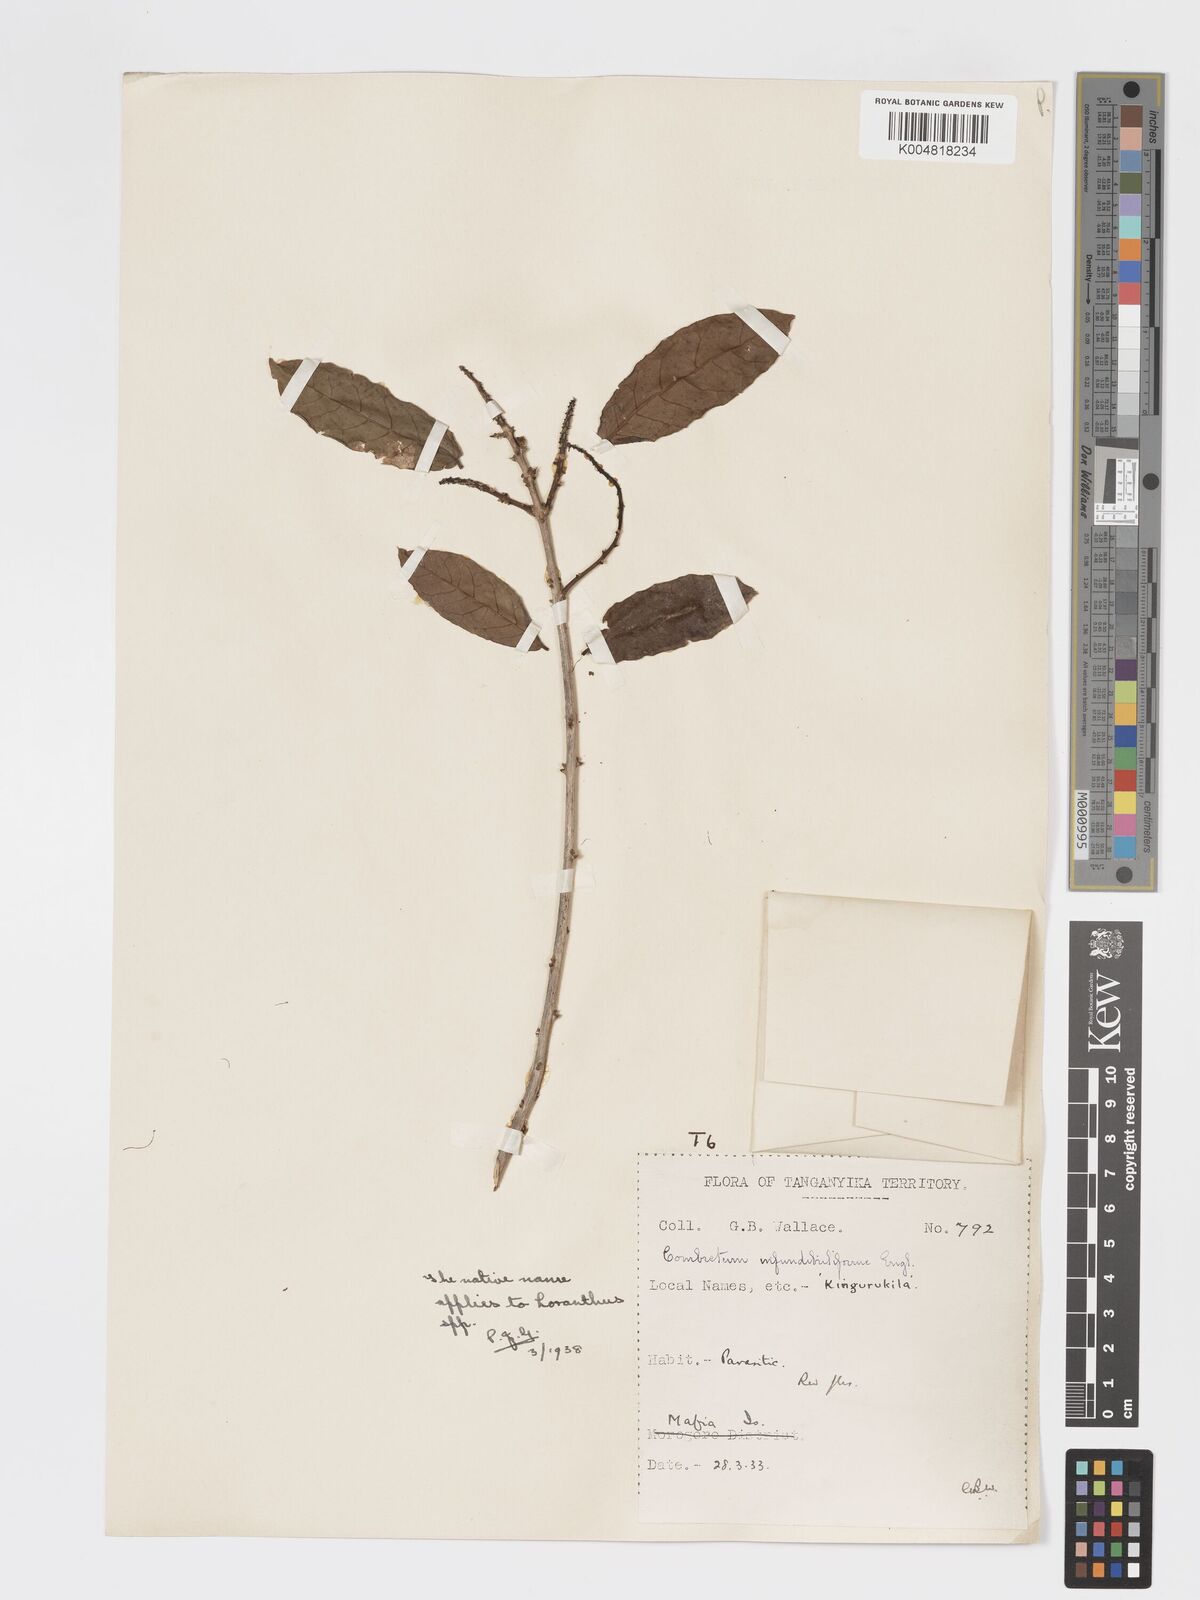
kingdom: Plantae
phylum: Tracheophyta
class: Magnoliopsida
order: Myrtales
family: Combretaceae
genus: Combretum
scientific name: Combretum constrictum
